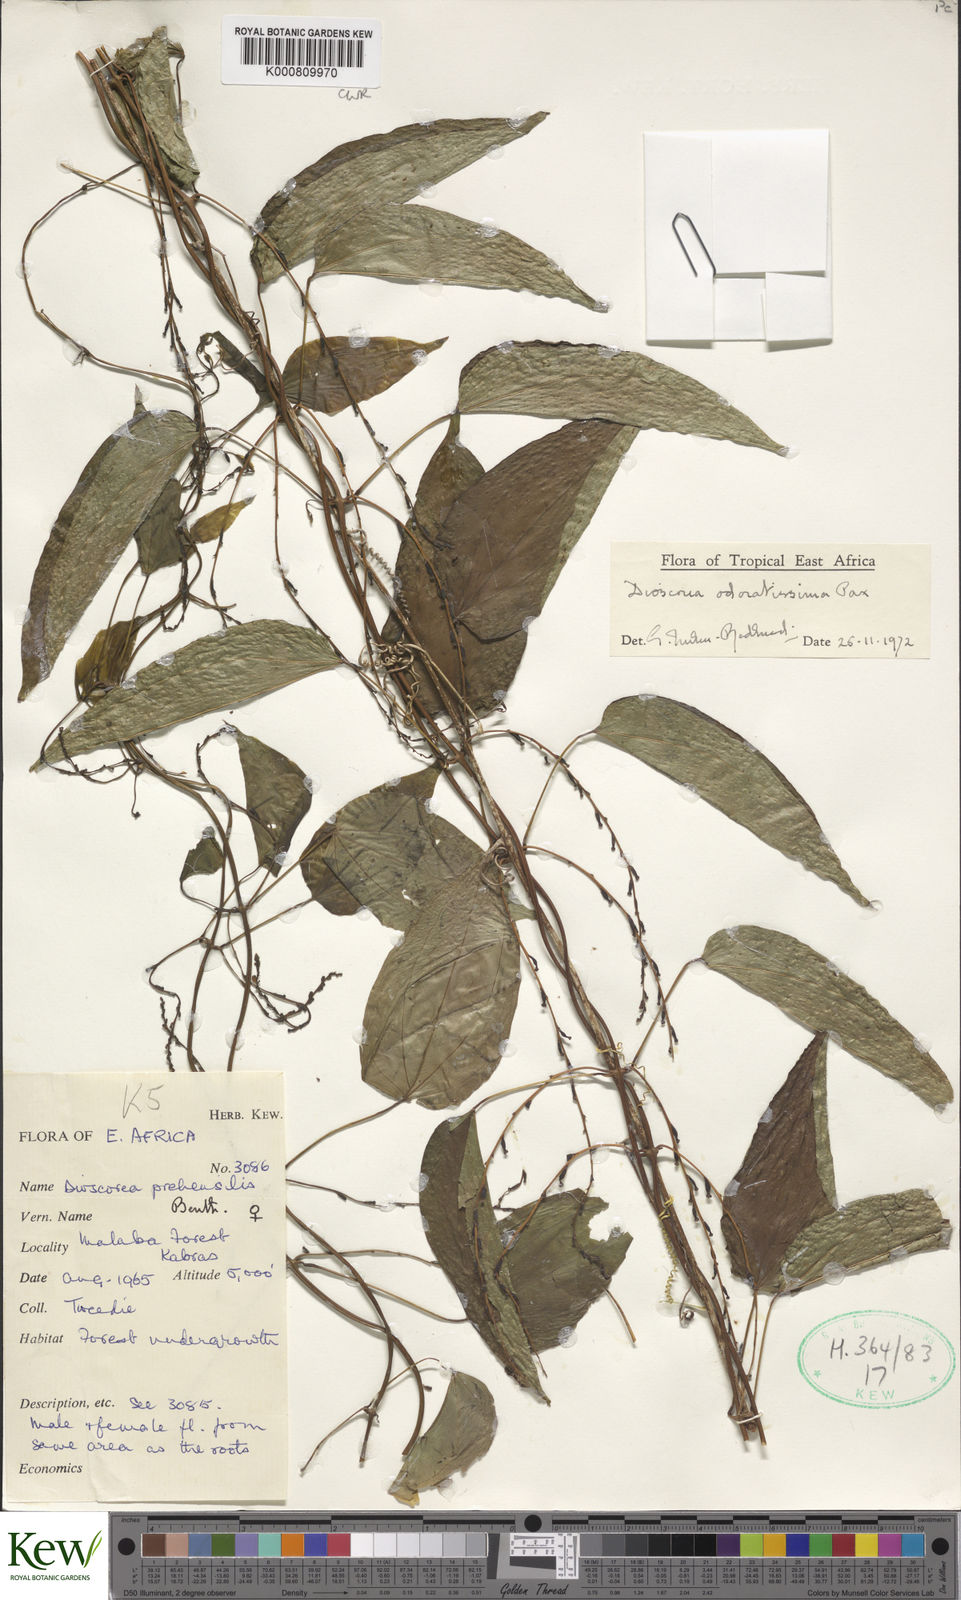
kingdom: Plantae
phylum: Tracheophyta
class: Liliopsida
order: Dioscoreales
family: Dioscoreaceae
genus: Dioscorea
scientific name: Dioscorea praehensilis
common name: Bush yam
